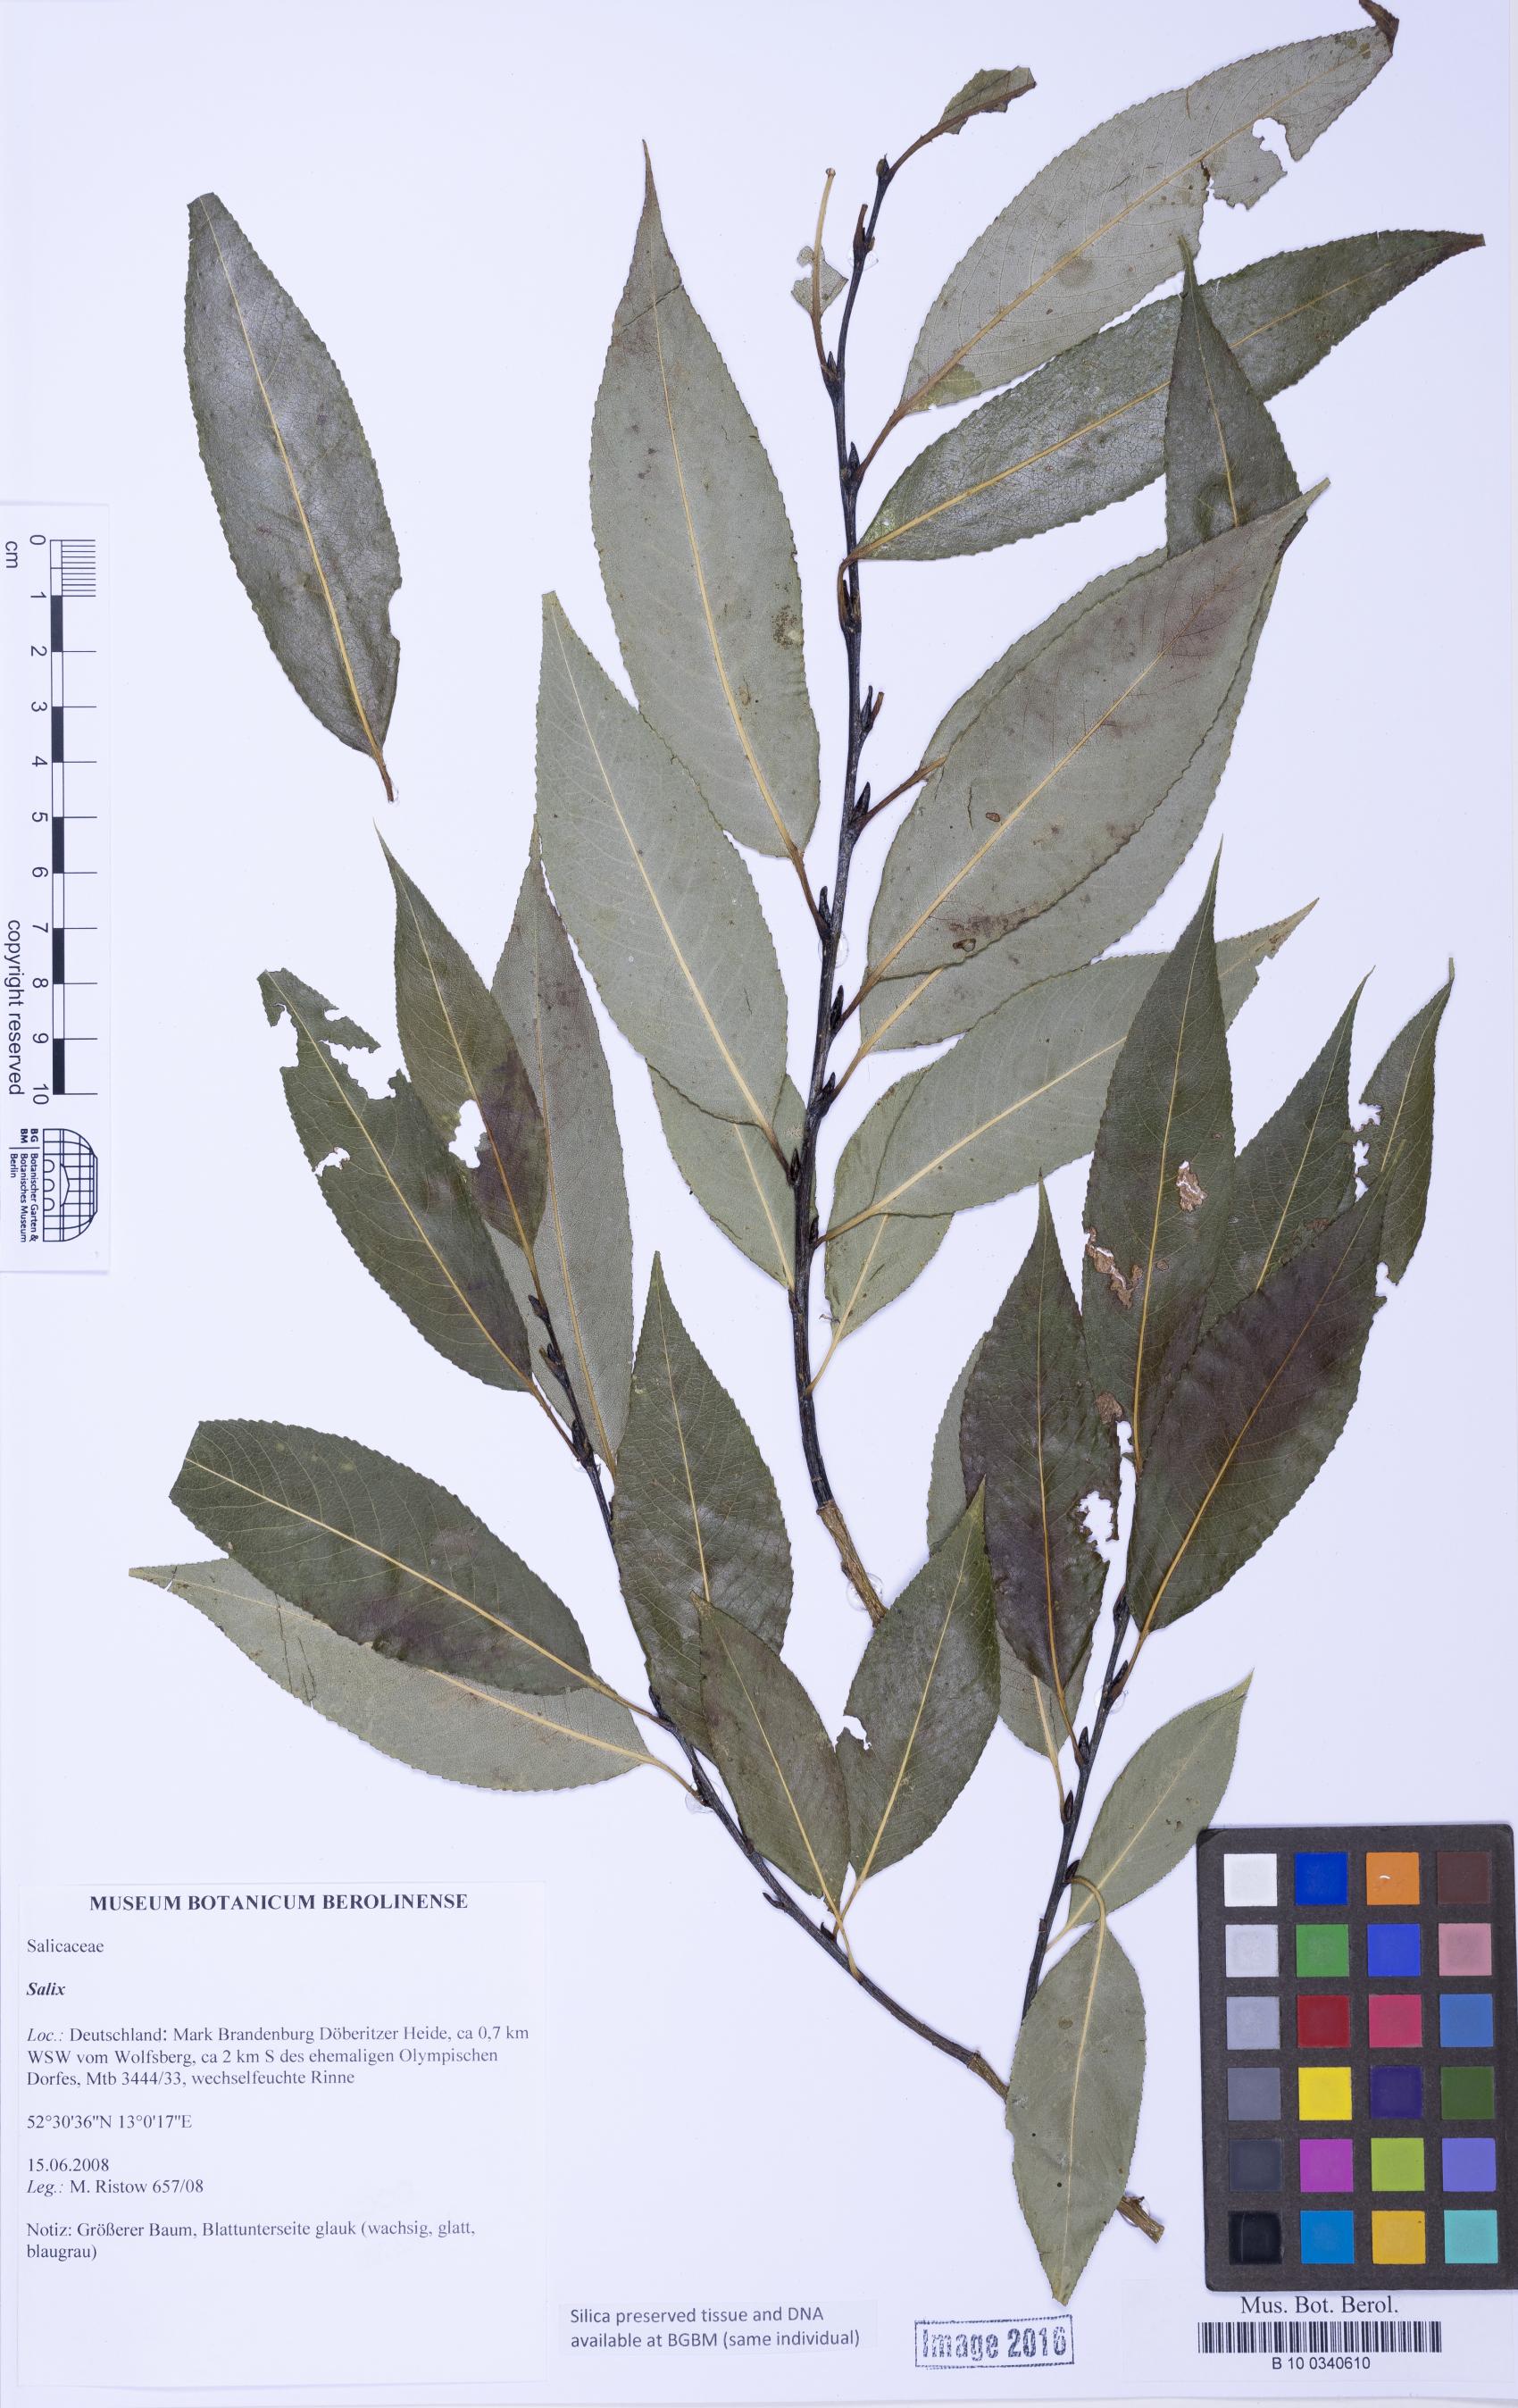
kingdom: Plantae
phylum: Tracheophyta
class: Magnoliopsida
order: Malpighiales
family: Salicaceae
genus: Salix
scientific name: Salix
